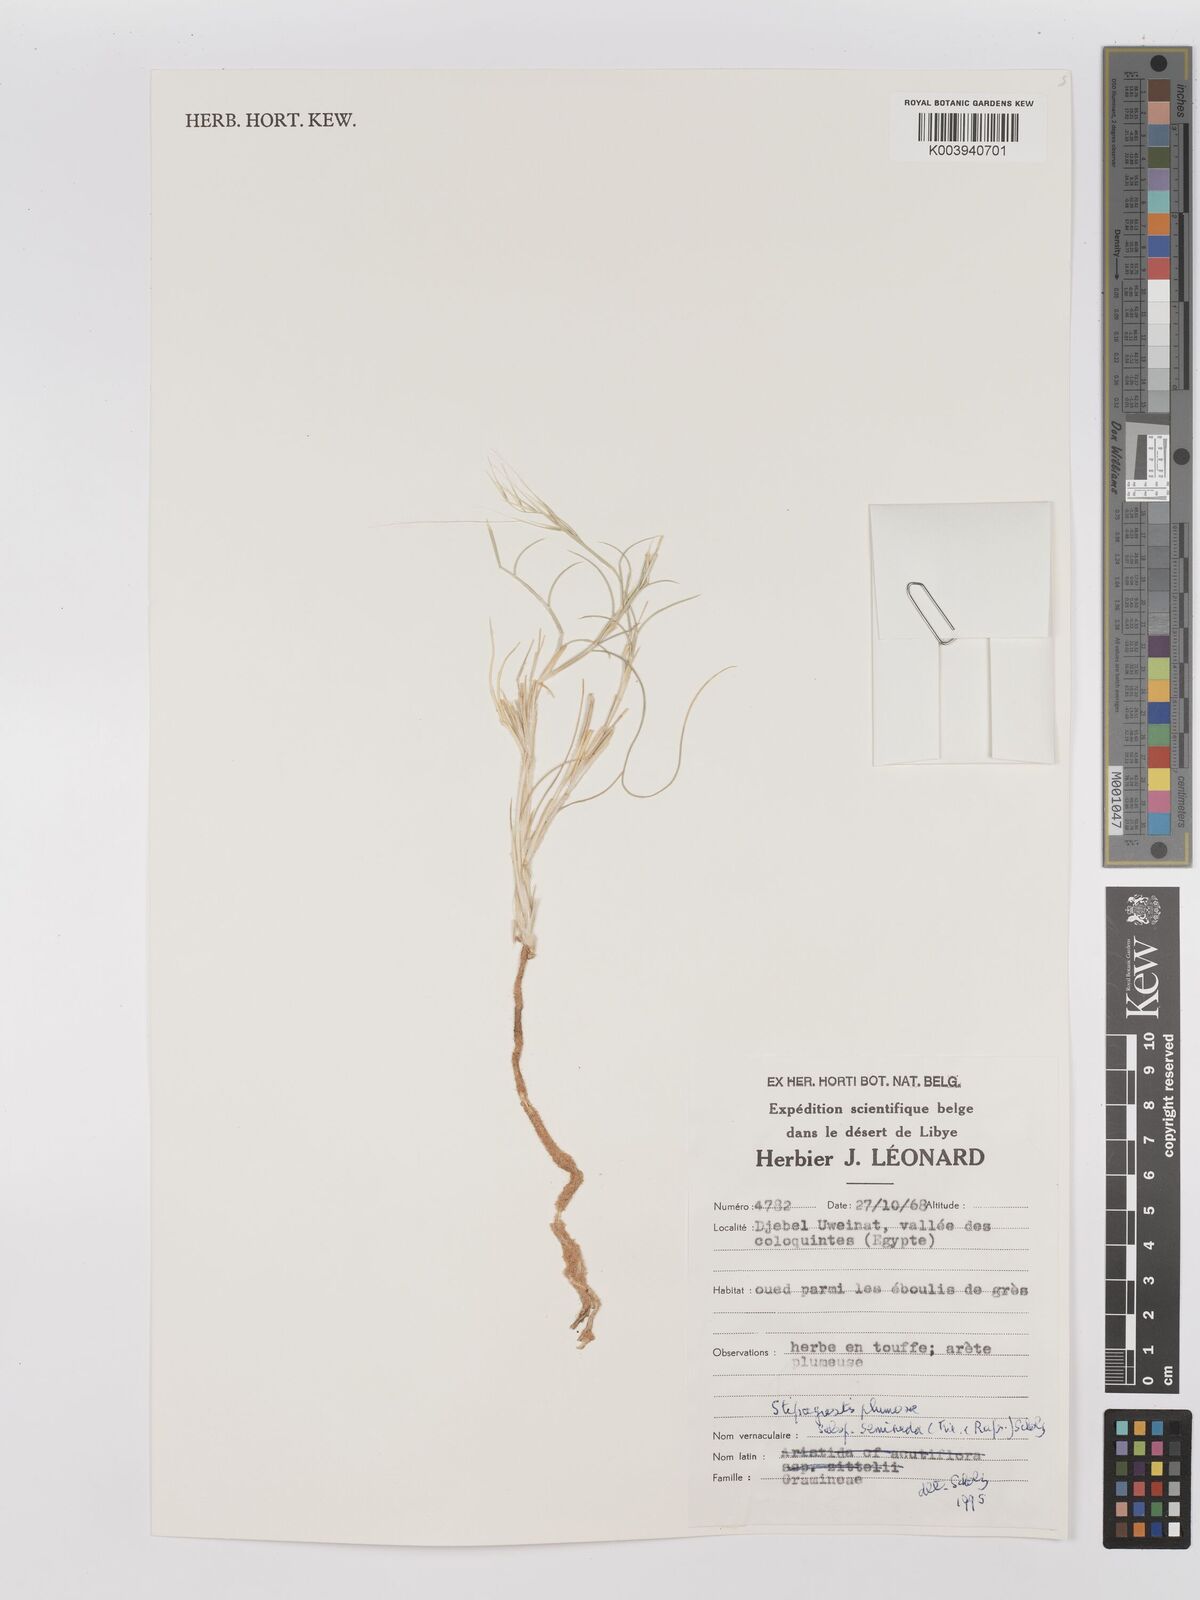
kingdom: Plantae
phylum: Tracheophyta
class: Liliopsida
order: Poales
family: Poaceae
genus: Stipagrostis
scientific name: Stipagrostis plumosa
